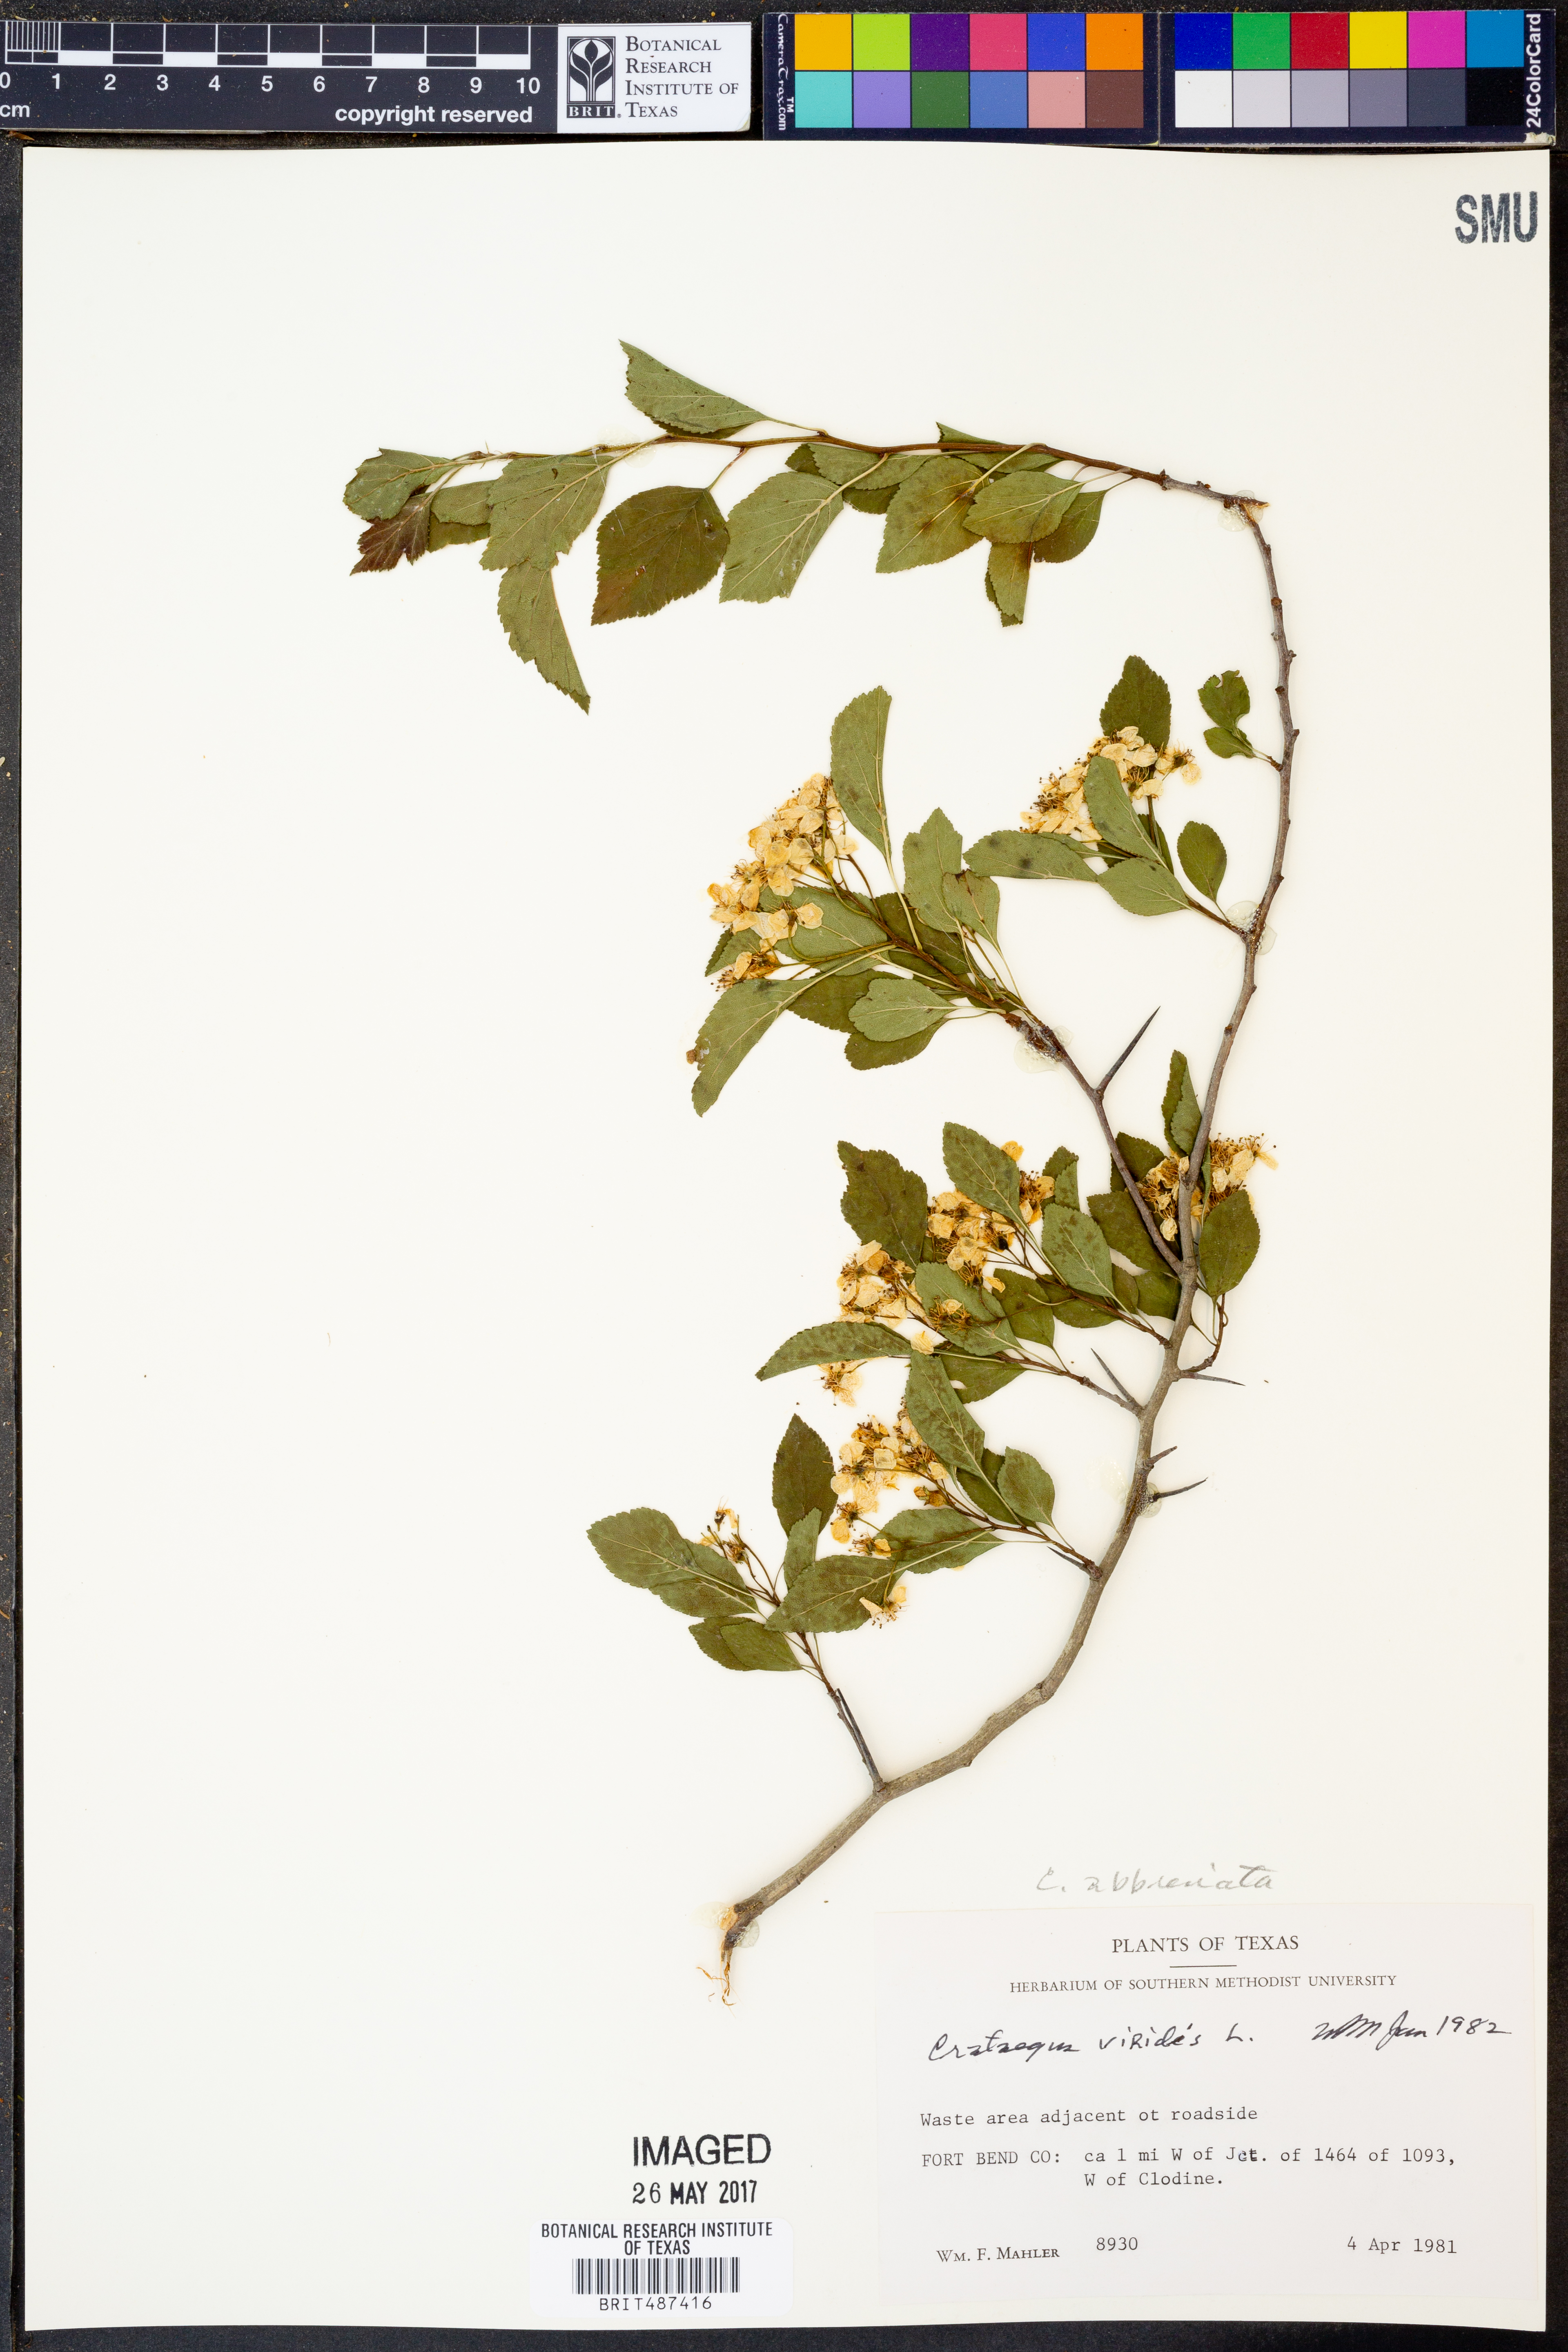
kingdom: Plantae
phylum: Tracheophyta
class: Magnoliopsida
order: Rosales
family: Rosaceae
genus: Crataegus
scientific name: Crataegus viridis
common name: Southernthorn
